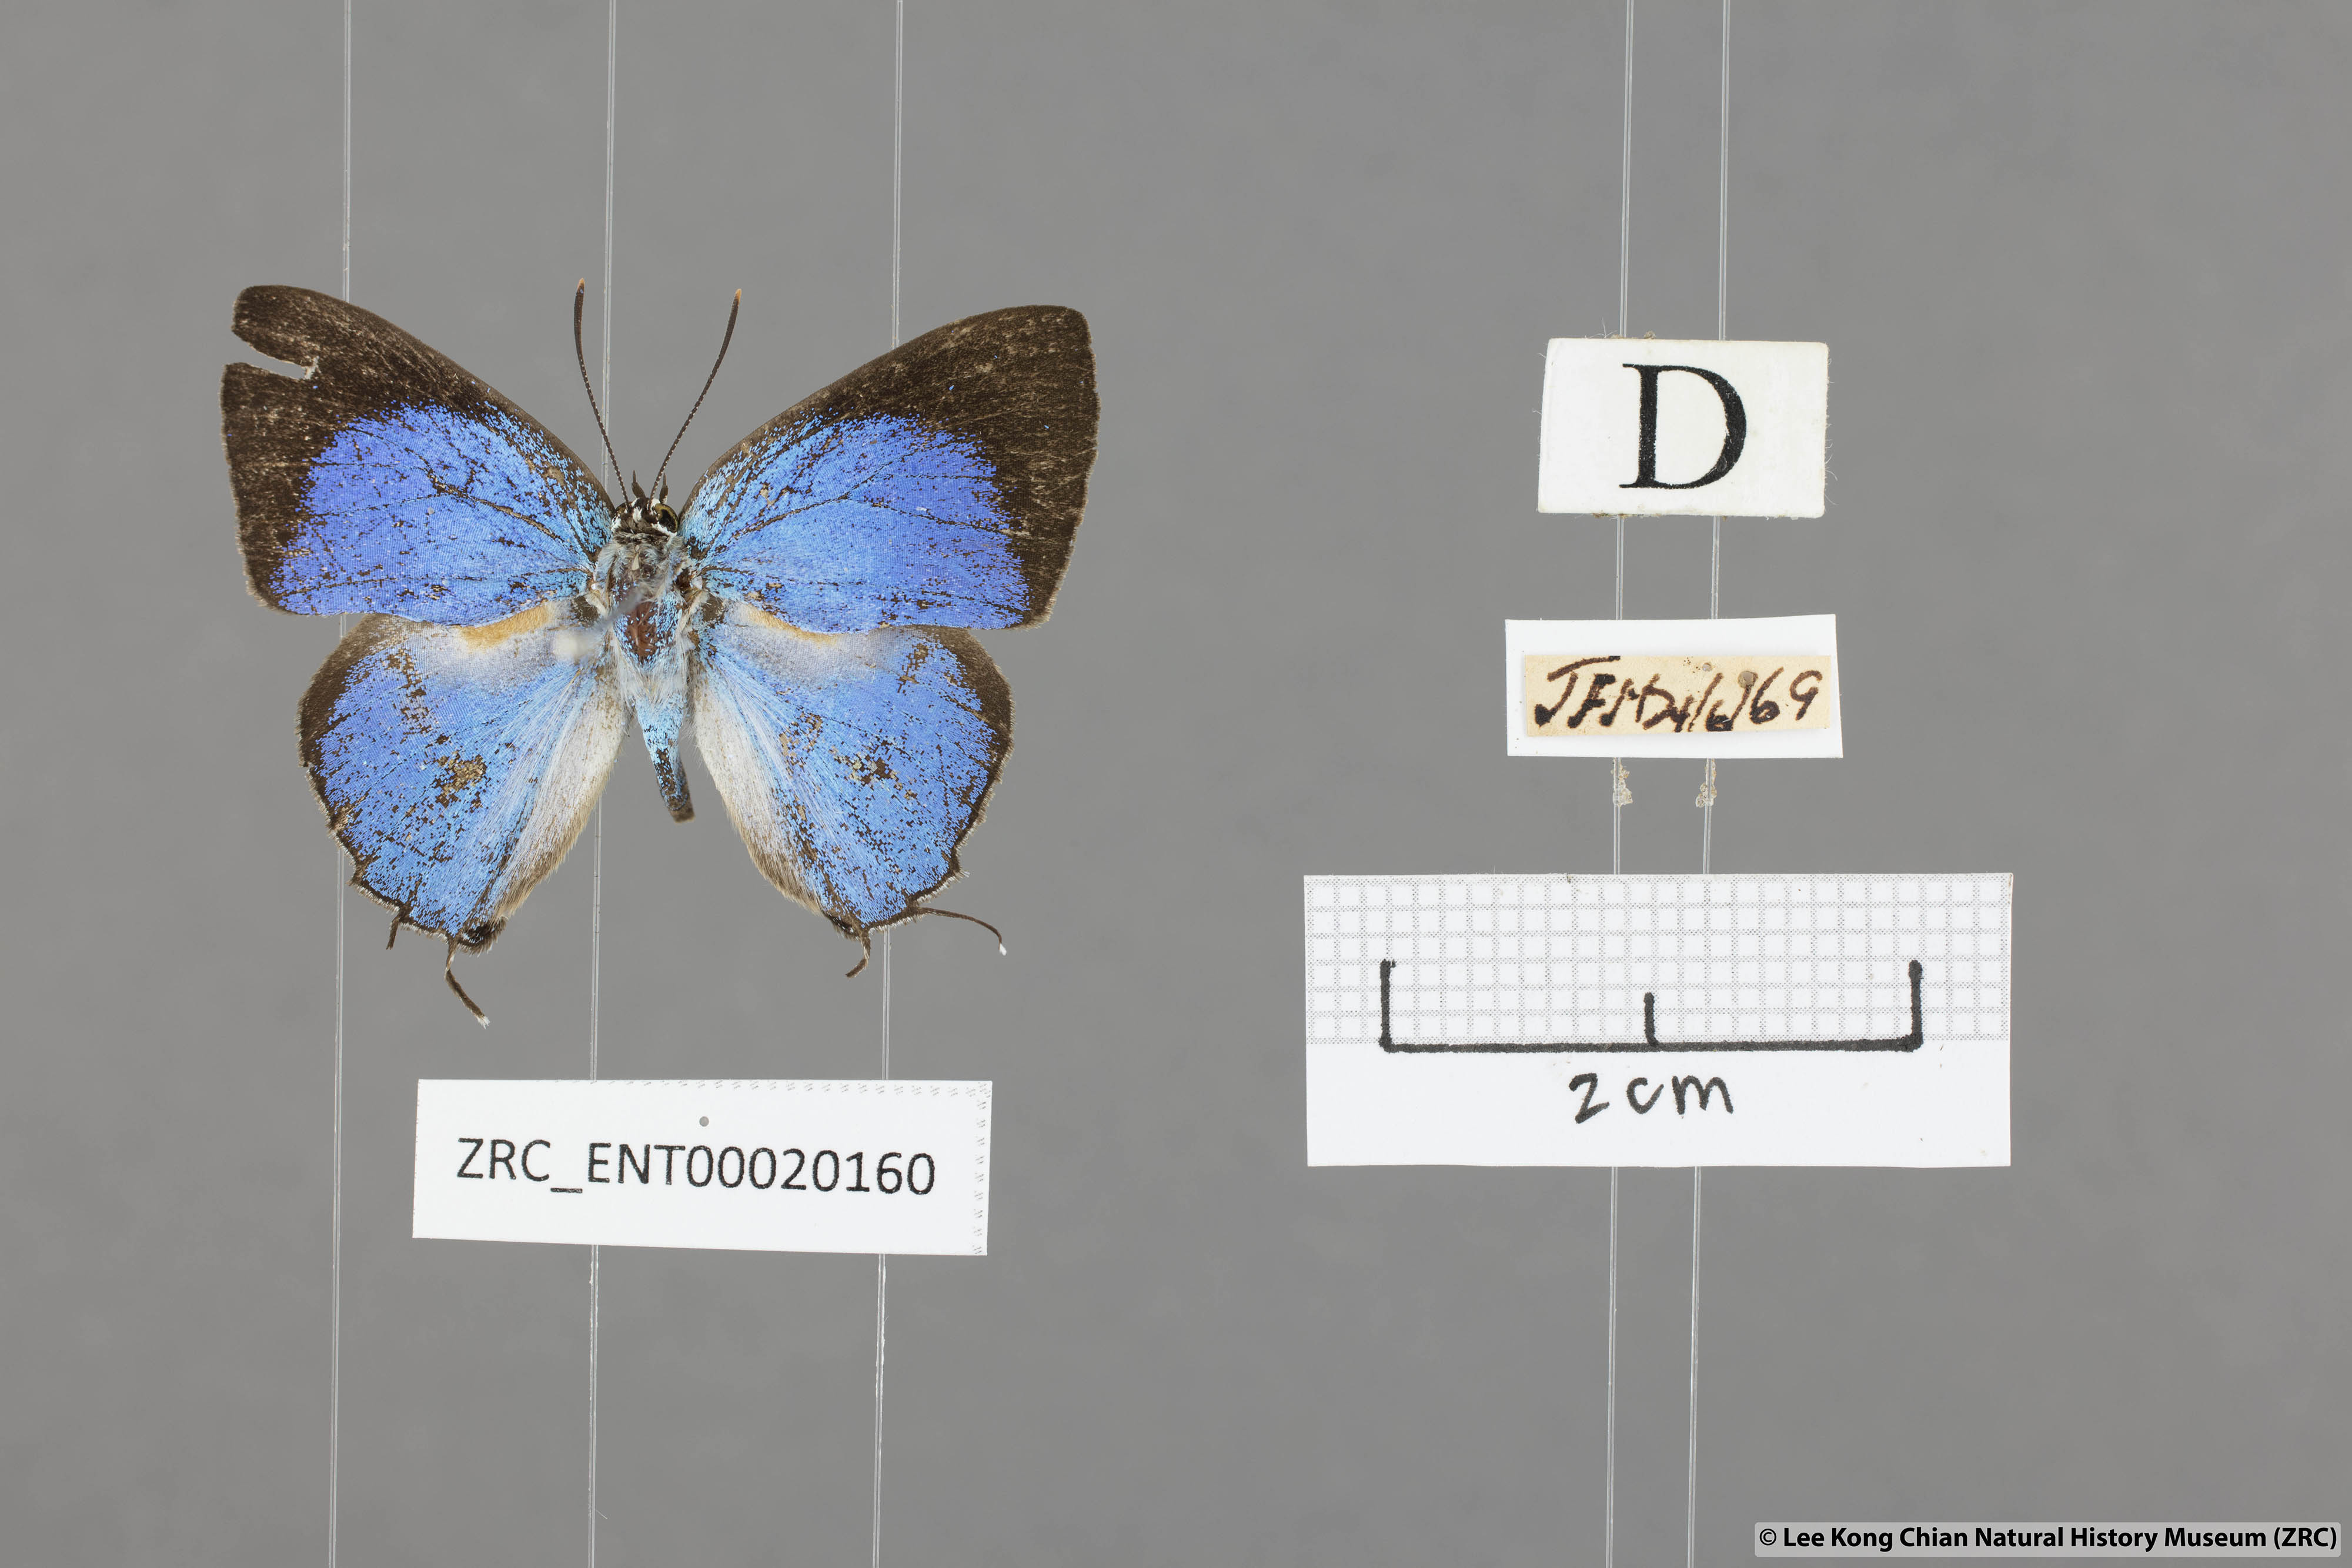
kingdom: Animalia
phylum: Arthropoda
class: Insecta
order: Lepidoptera
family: Lycaenidae
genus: Dacalana
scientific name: Dacalana
